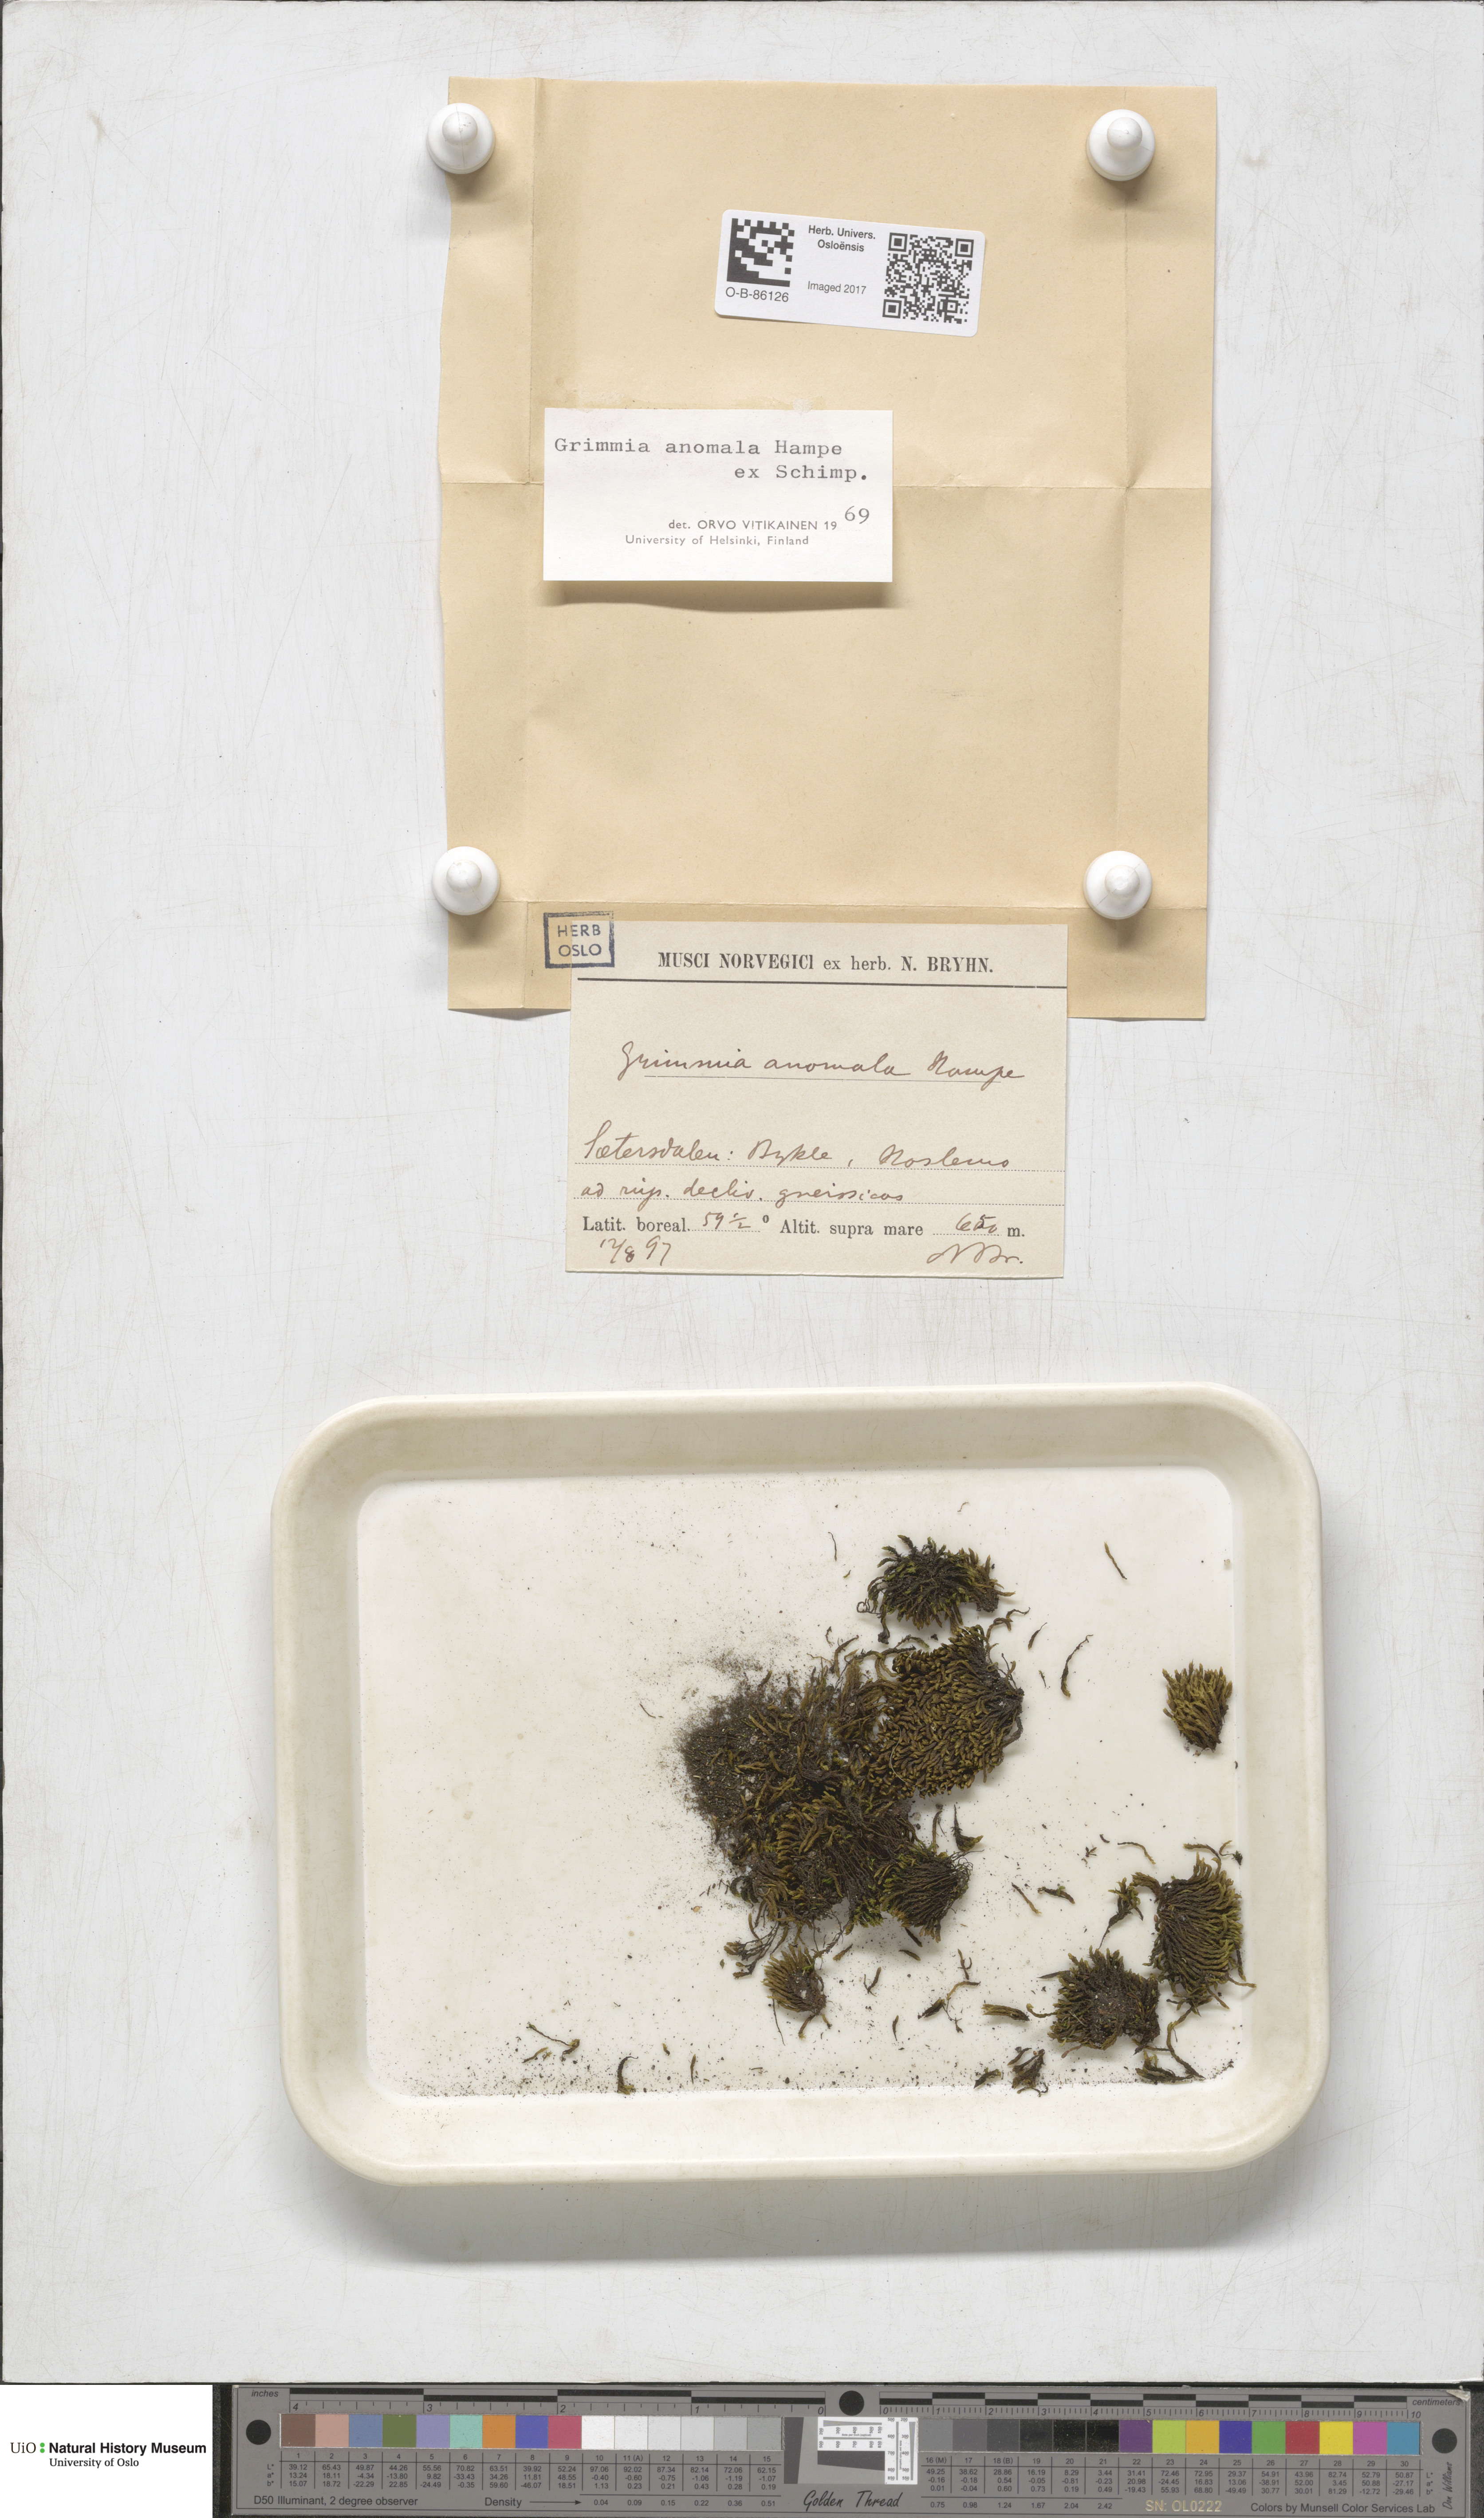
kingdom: Plantae
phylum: Bryophyta
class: Bryopsida
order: Grimmiales
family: Grimmiaceae
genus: Grimmia
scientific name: Grimmia anomala
